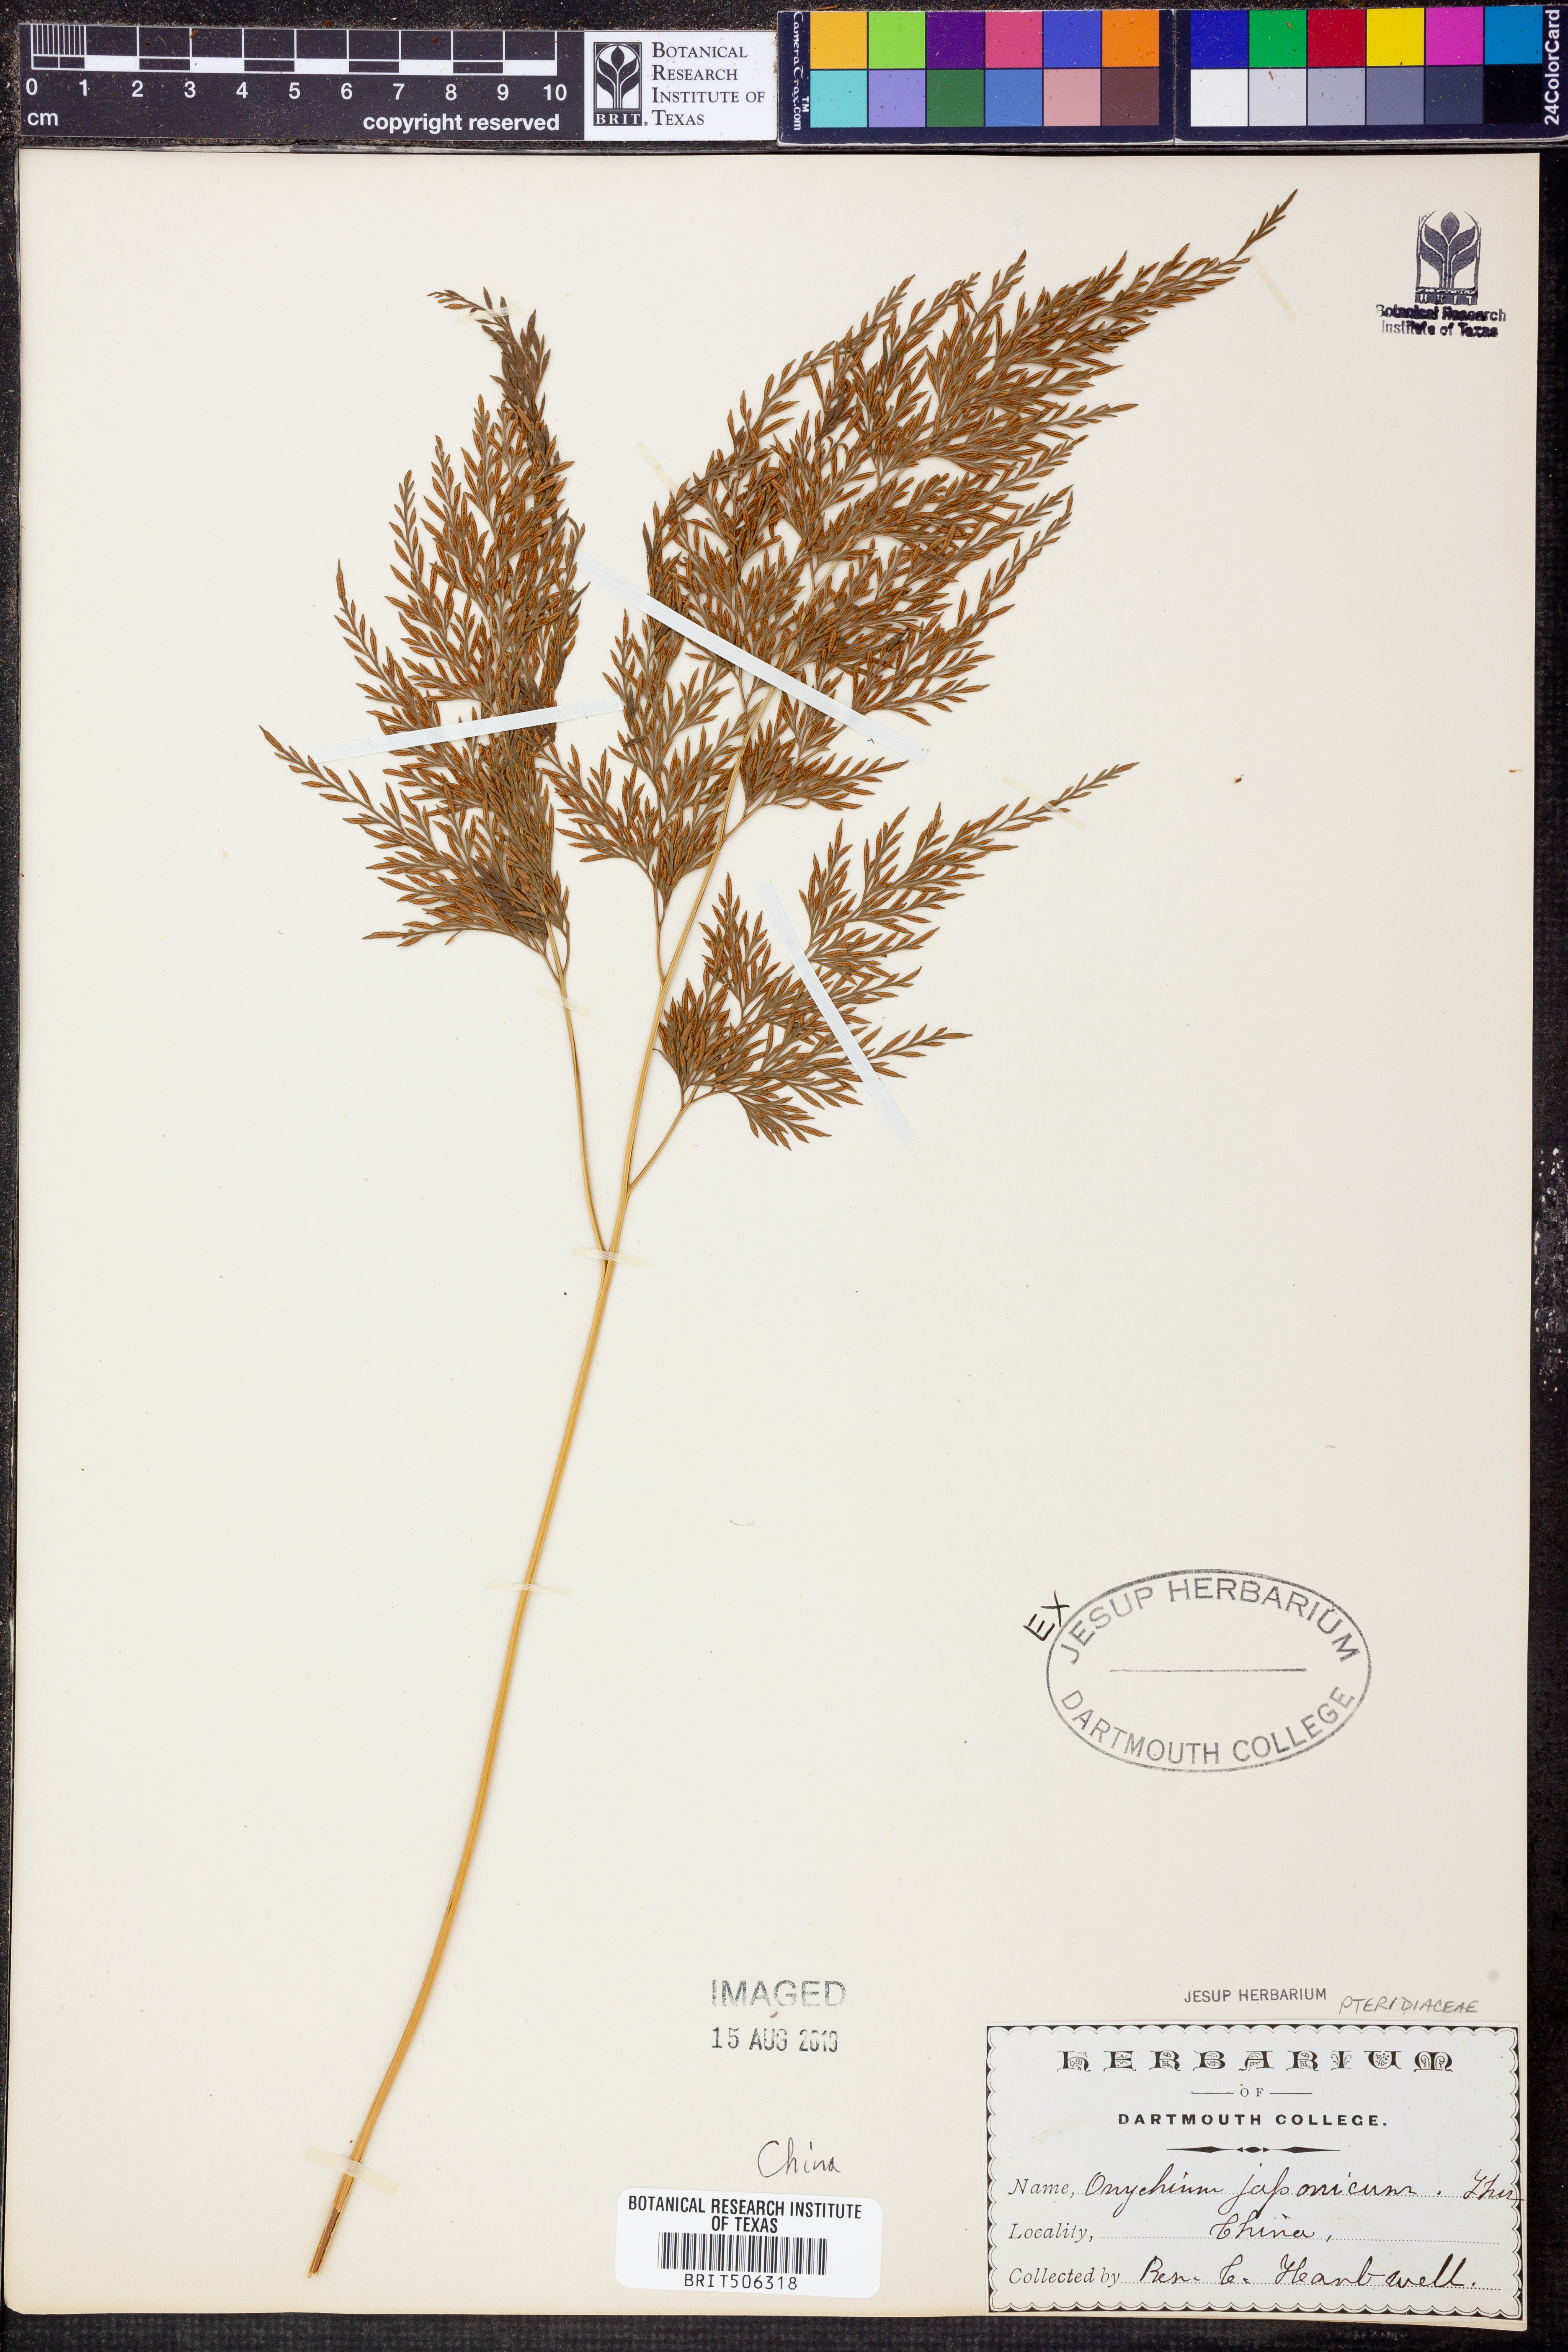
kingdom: Plantae
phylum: Tracheophyta
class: Polypodiopsida
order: Polypodiales
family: Pteridaceae
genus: Onychium
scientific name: Onychium japonicum
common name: Carrot fern
